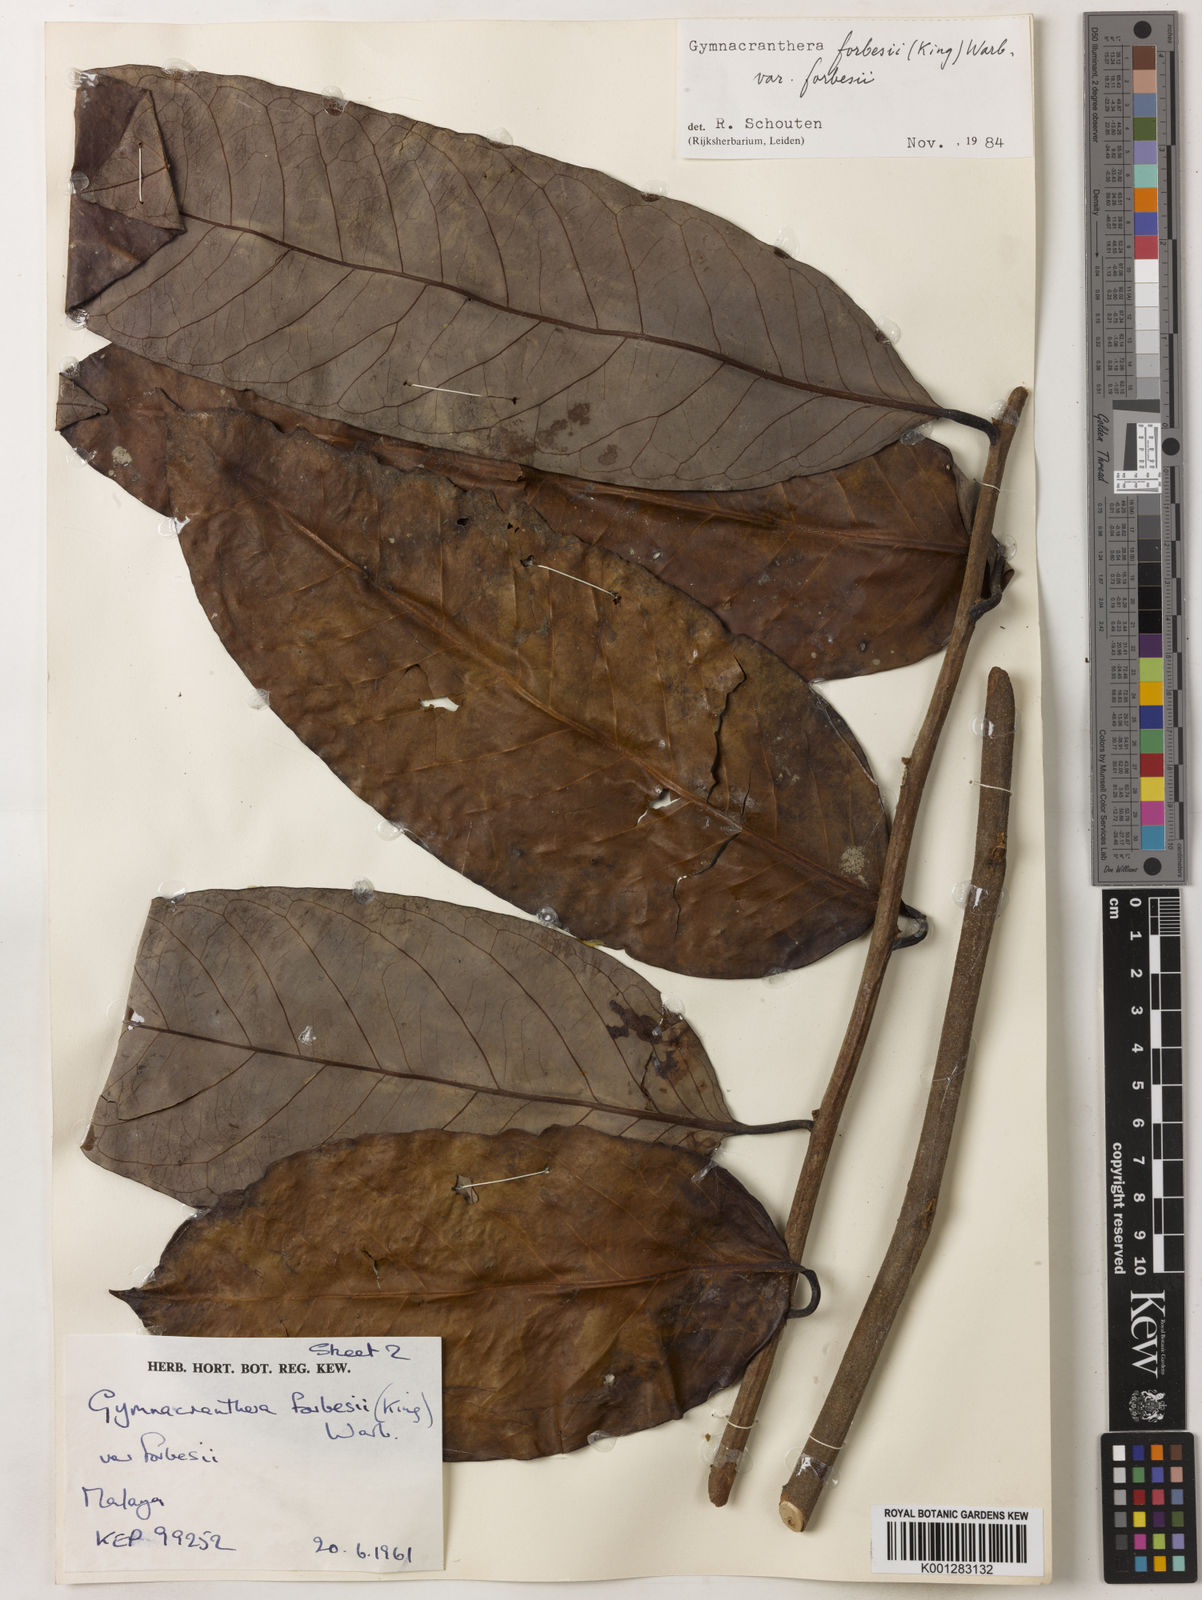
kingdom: Plantae
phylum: Tracheophyta
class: Magnoliopsida
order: Magnoliales
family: Myristicaceae
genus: Gymnacranthera
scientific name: Gymnacranthera forbesii
